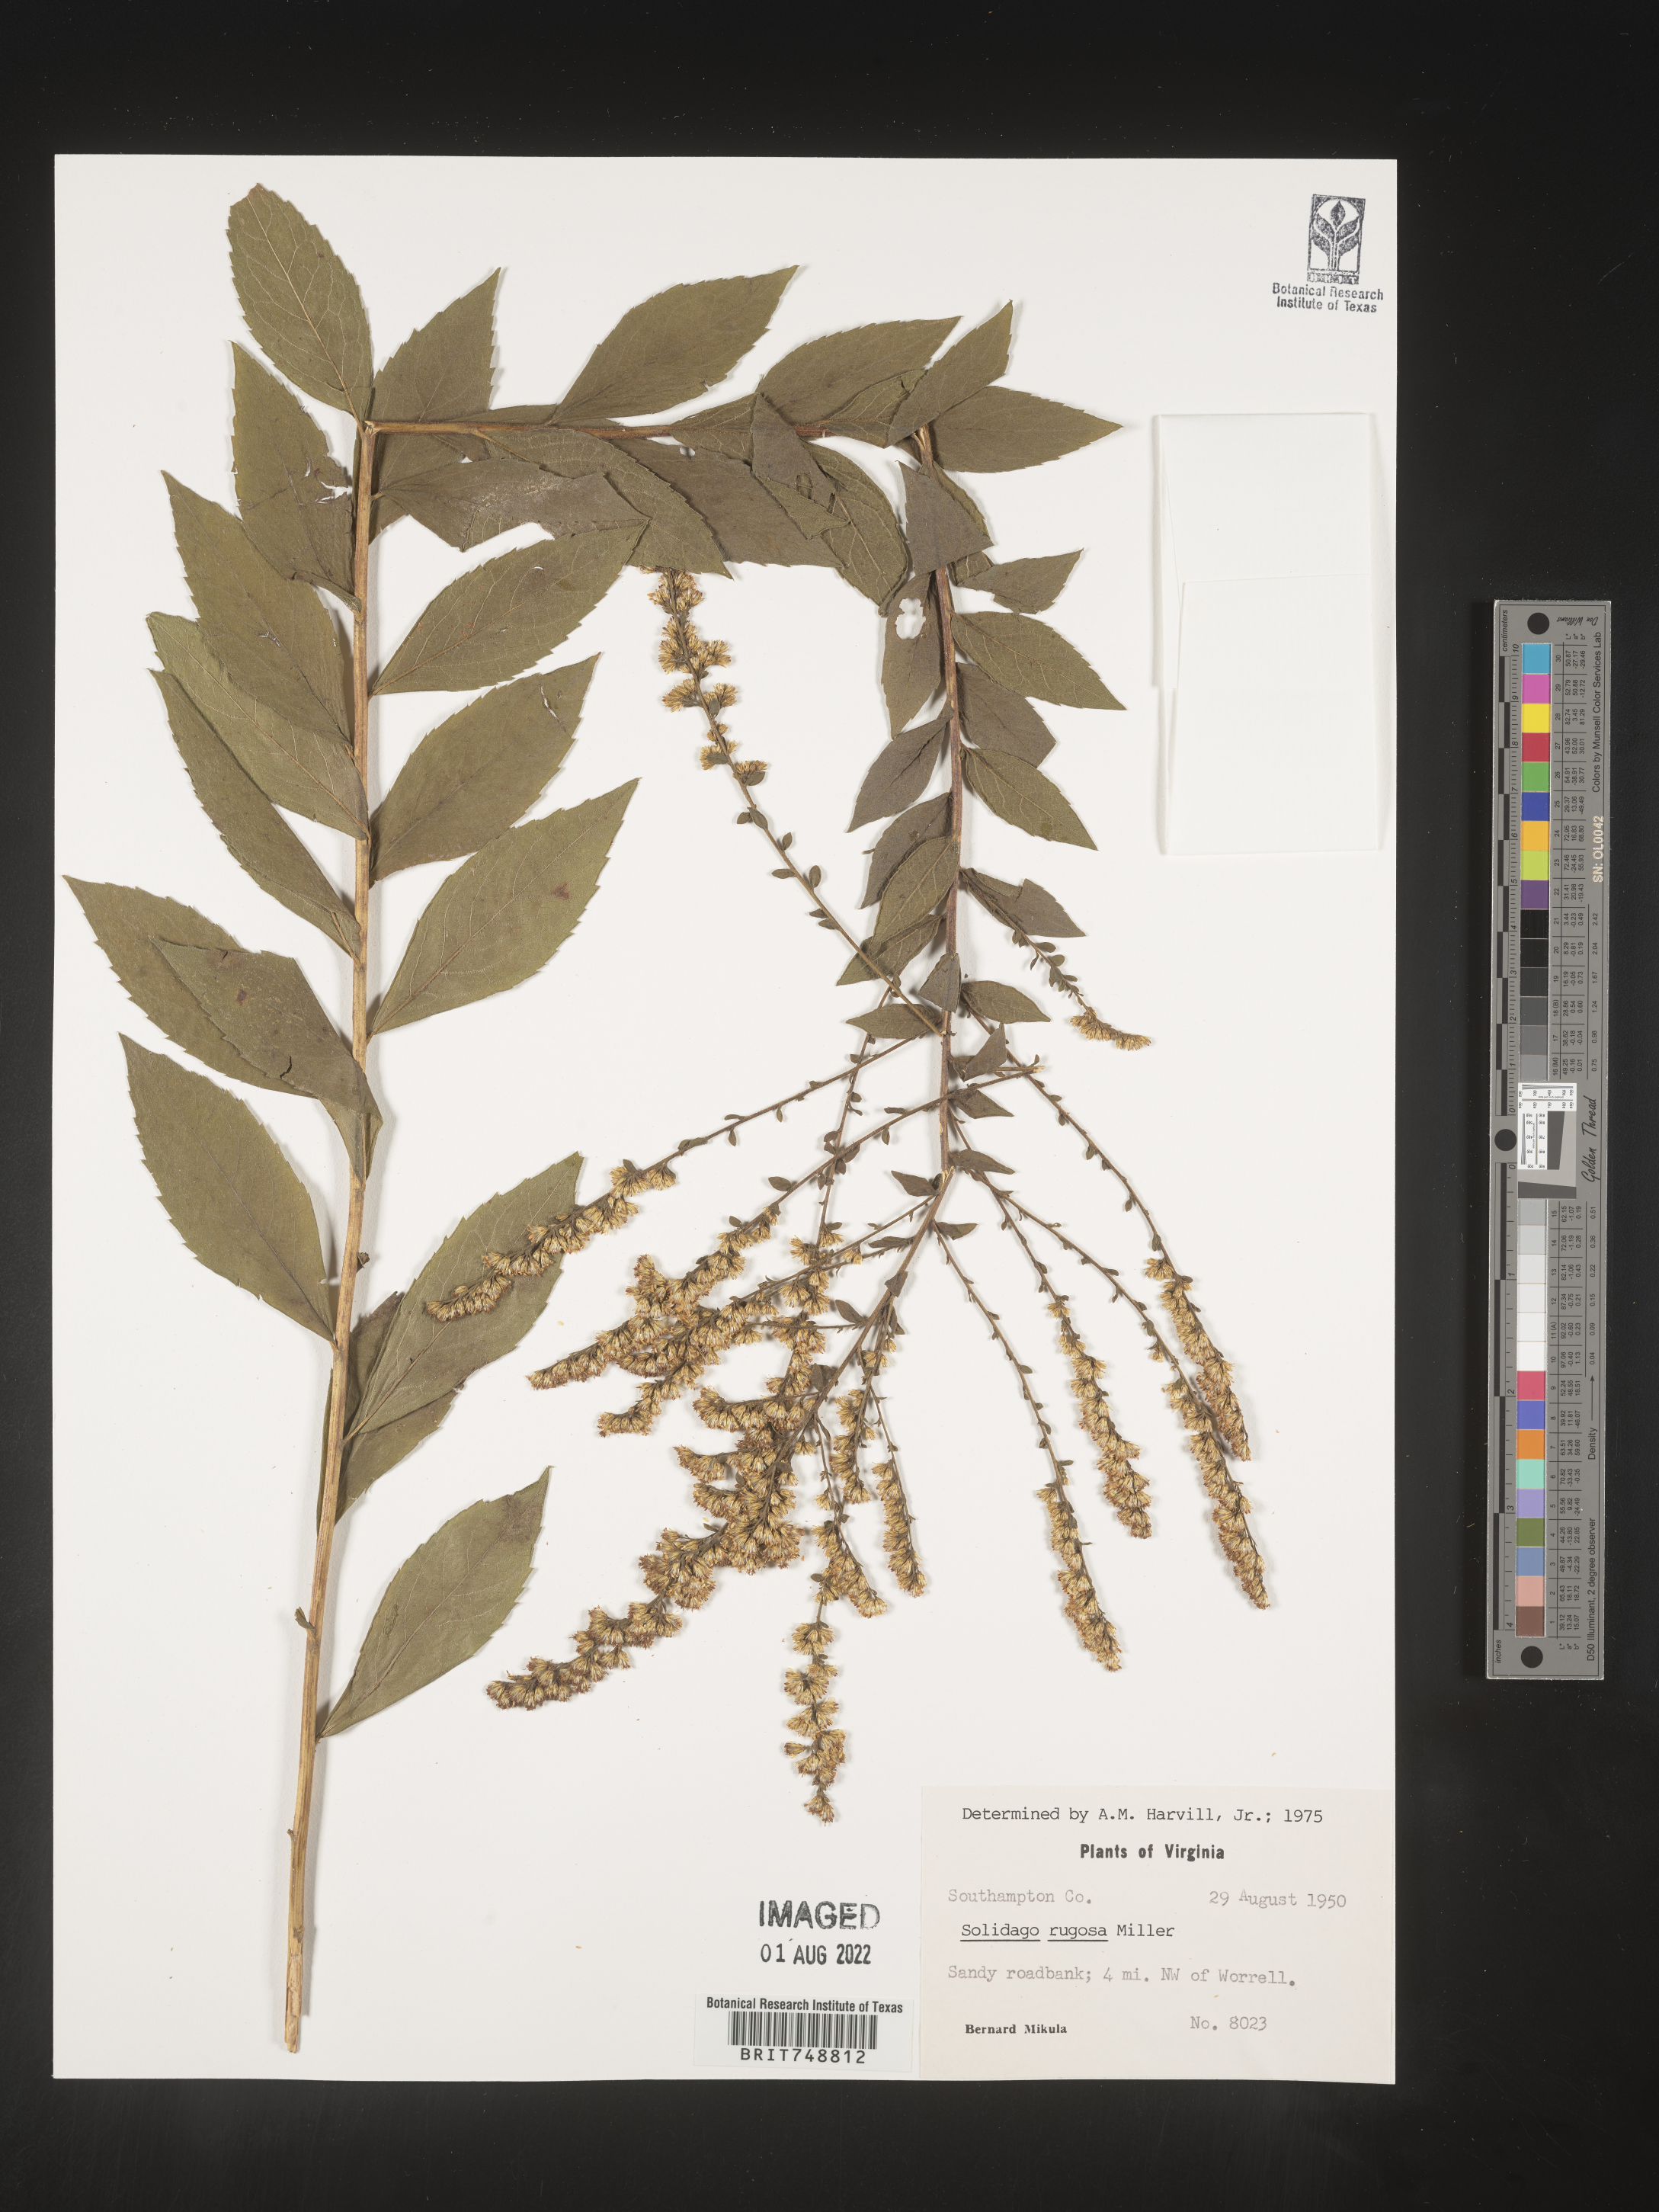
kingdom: Plantae
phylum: Tracheophyta
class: Magnoliopsida
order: Asterales
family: Asteraceae
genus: Solidago
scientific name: Solidago rugosa
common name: Rough-stemmed goldenrod
